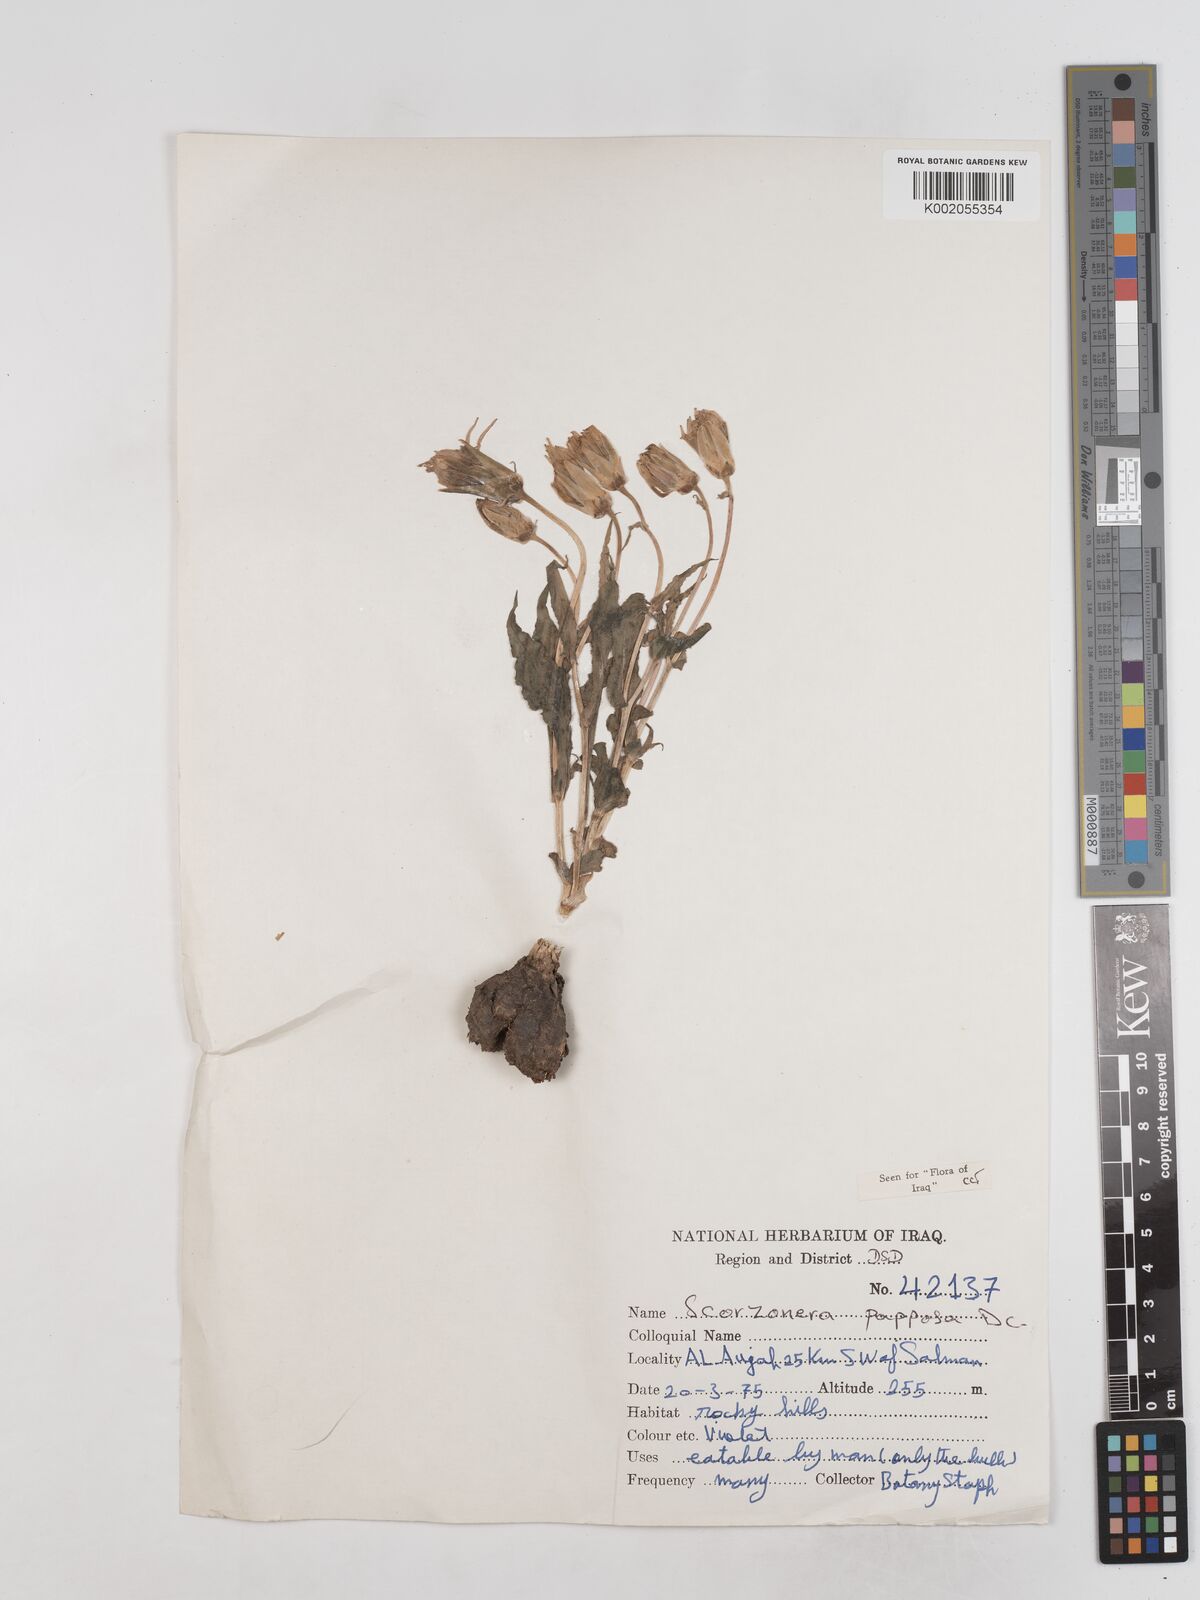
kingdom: Plantae
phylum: Tracheophyta
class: Magnoliopsida
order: Asterales
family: Asteraceae
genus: Pseudopodospermum
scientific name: Pseudopodospermum papposum
